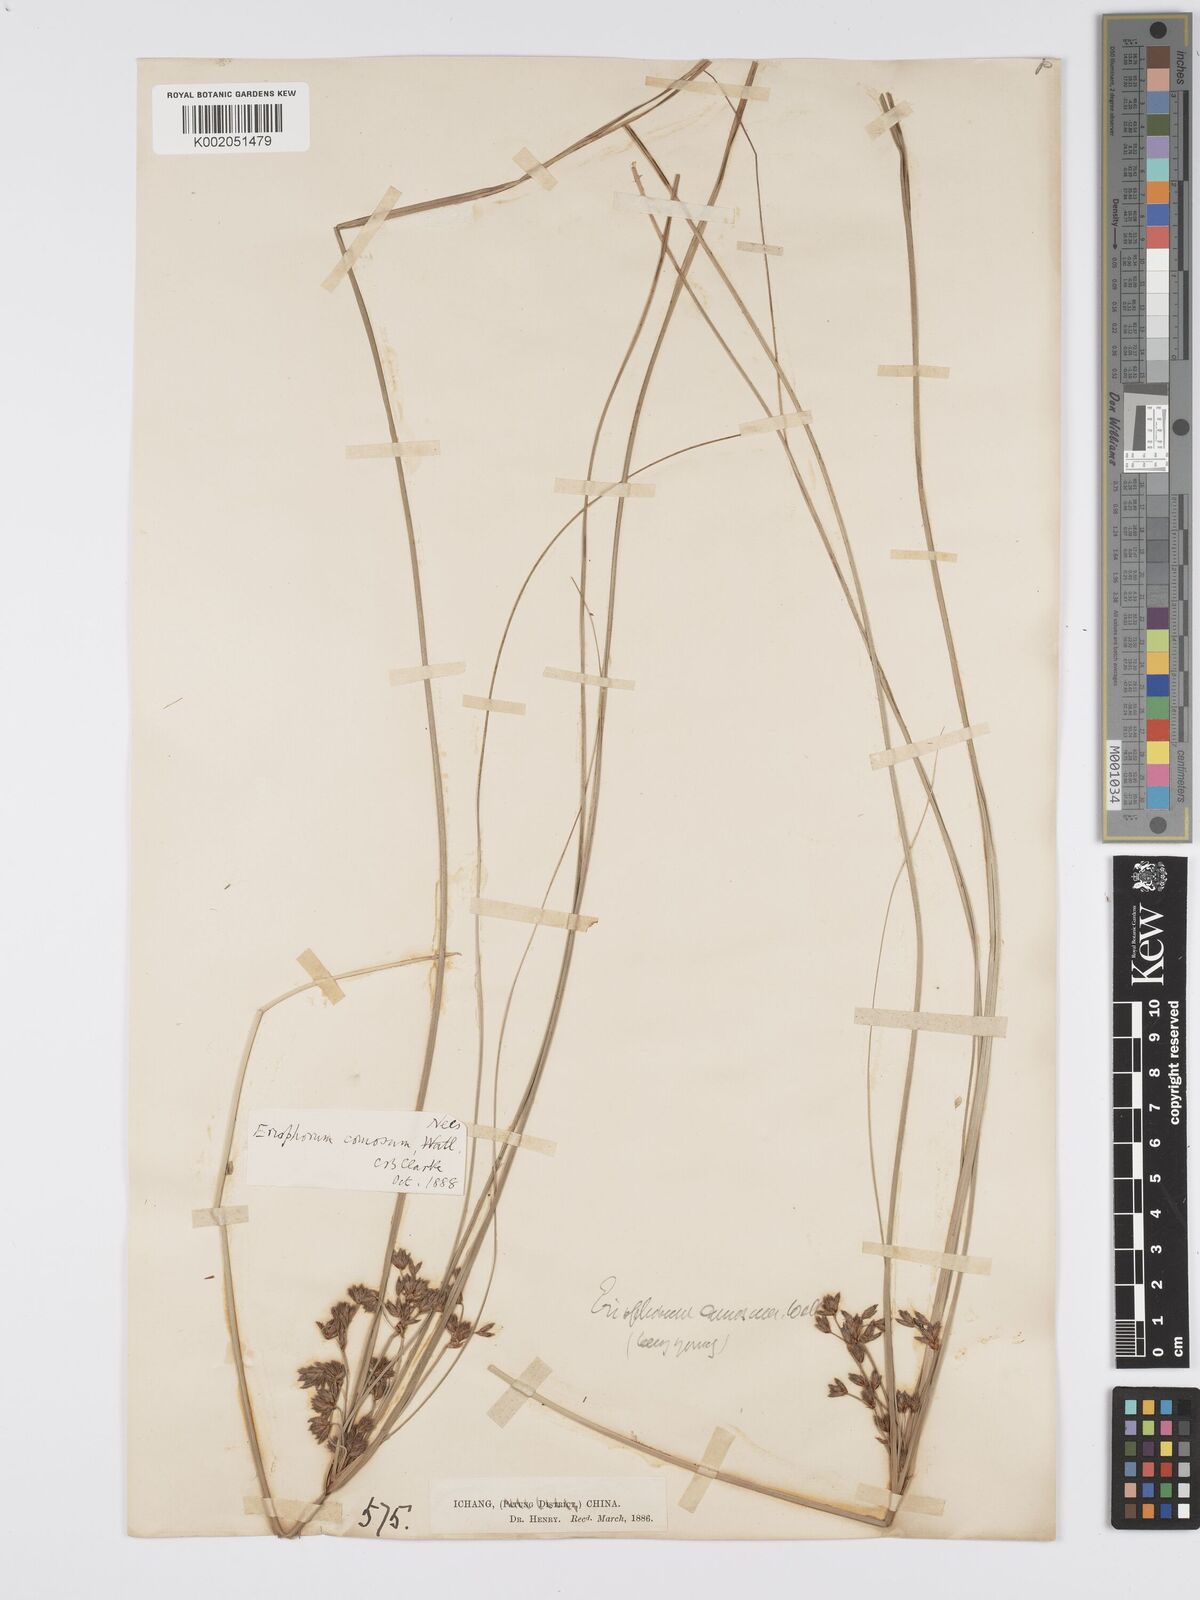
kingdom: Plantae
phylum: Tracheophyta
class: Liliopsida
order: Poales
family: Cyperaceae
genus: Erioscirpus
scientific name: Erioscirpus comosus
